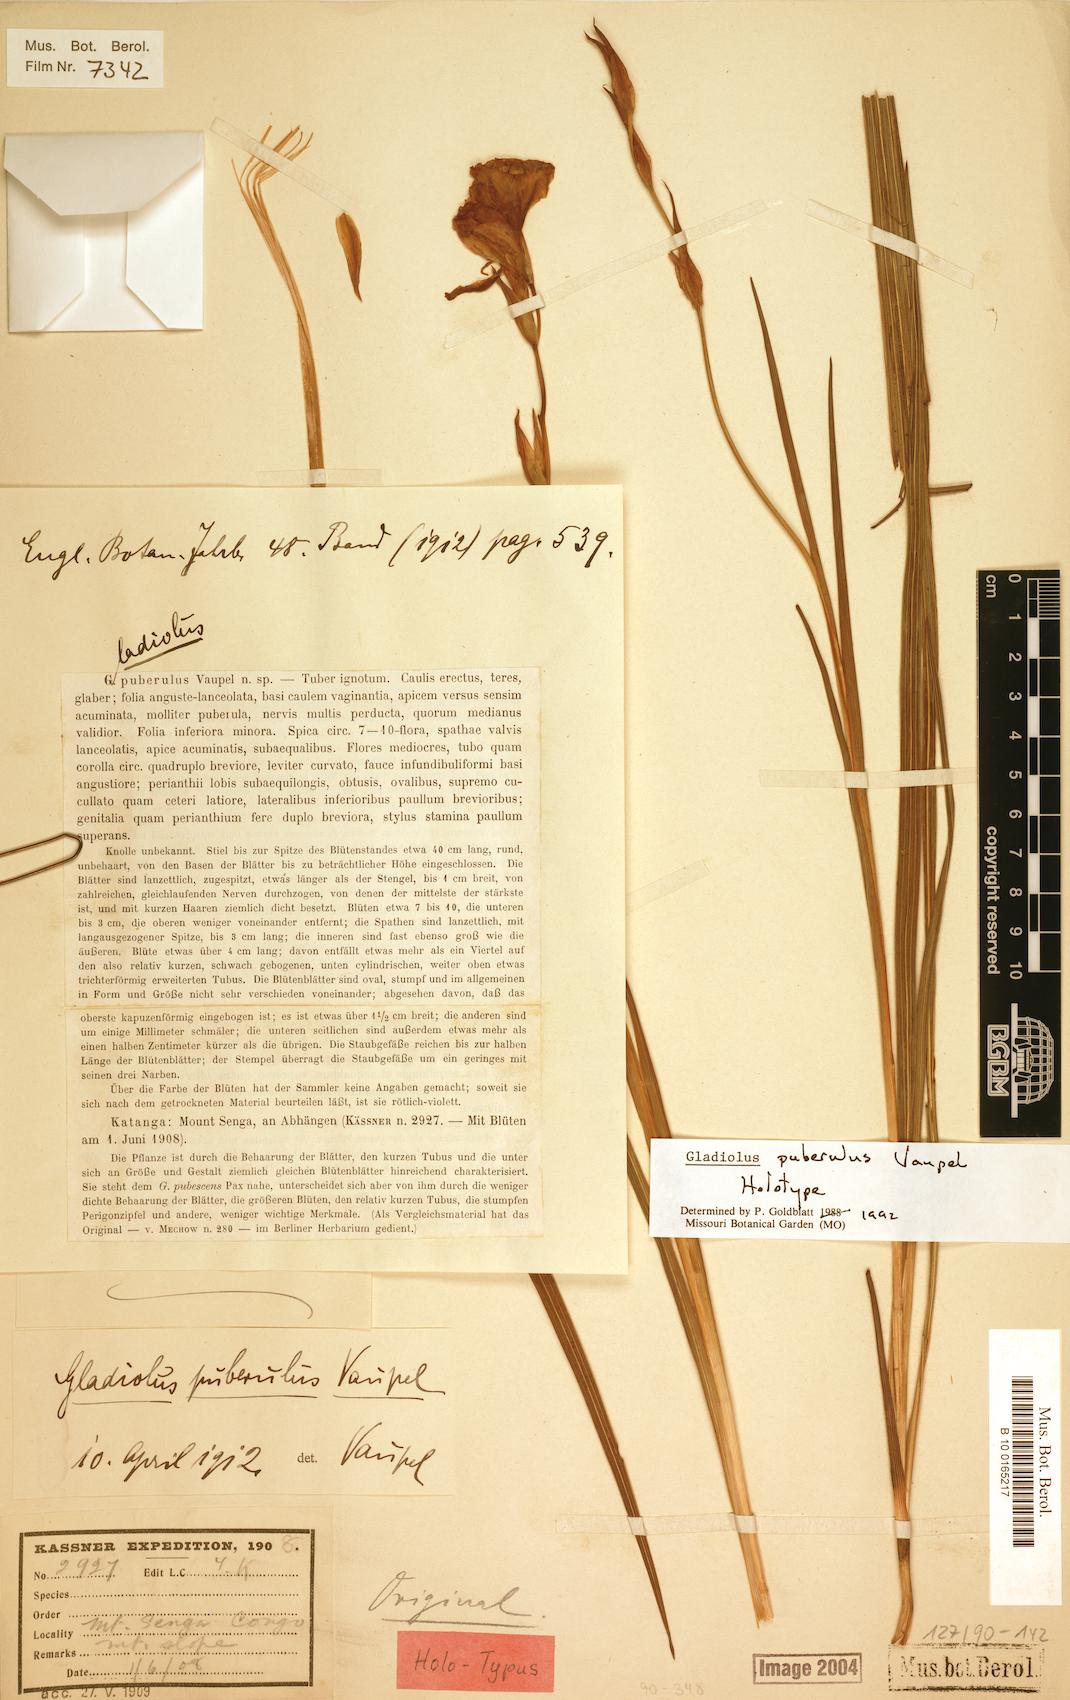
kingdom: Plantae
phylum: Tracheophyta
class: Liliopsida
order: Asparagales
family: Iridaceae
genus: Gladiolus
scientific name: Gladiolus puberulus
